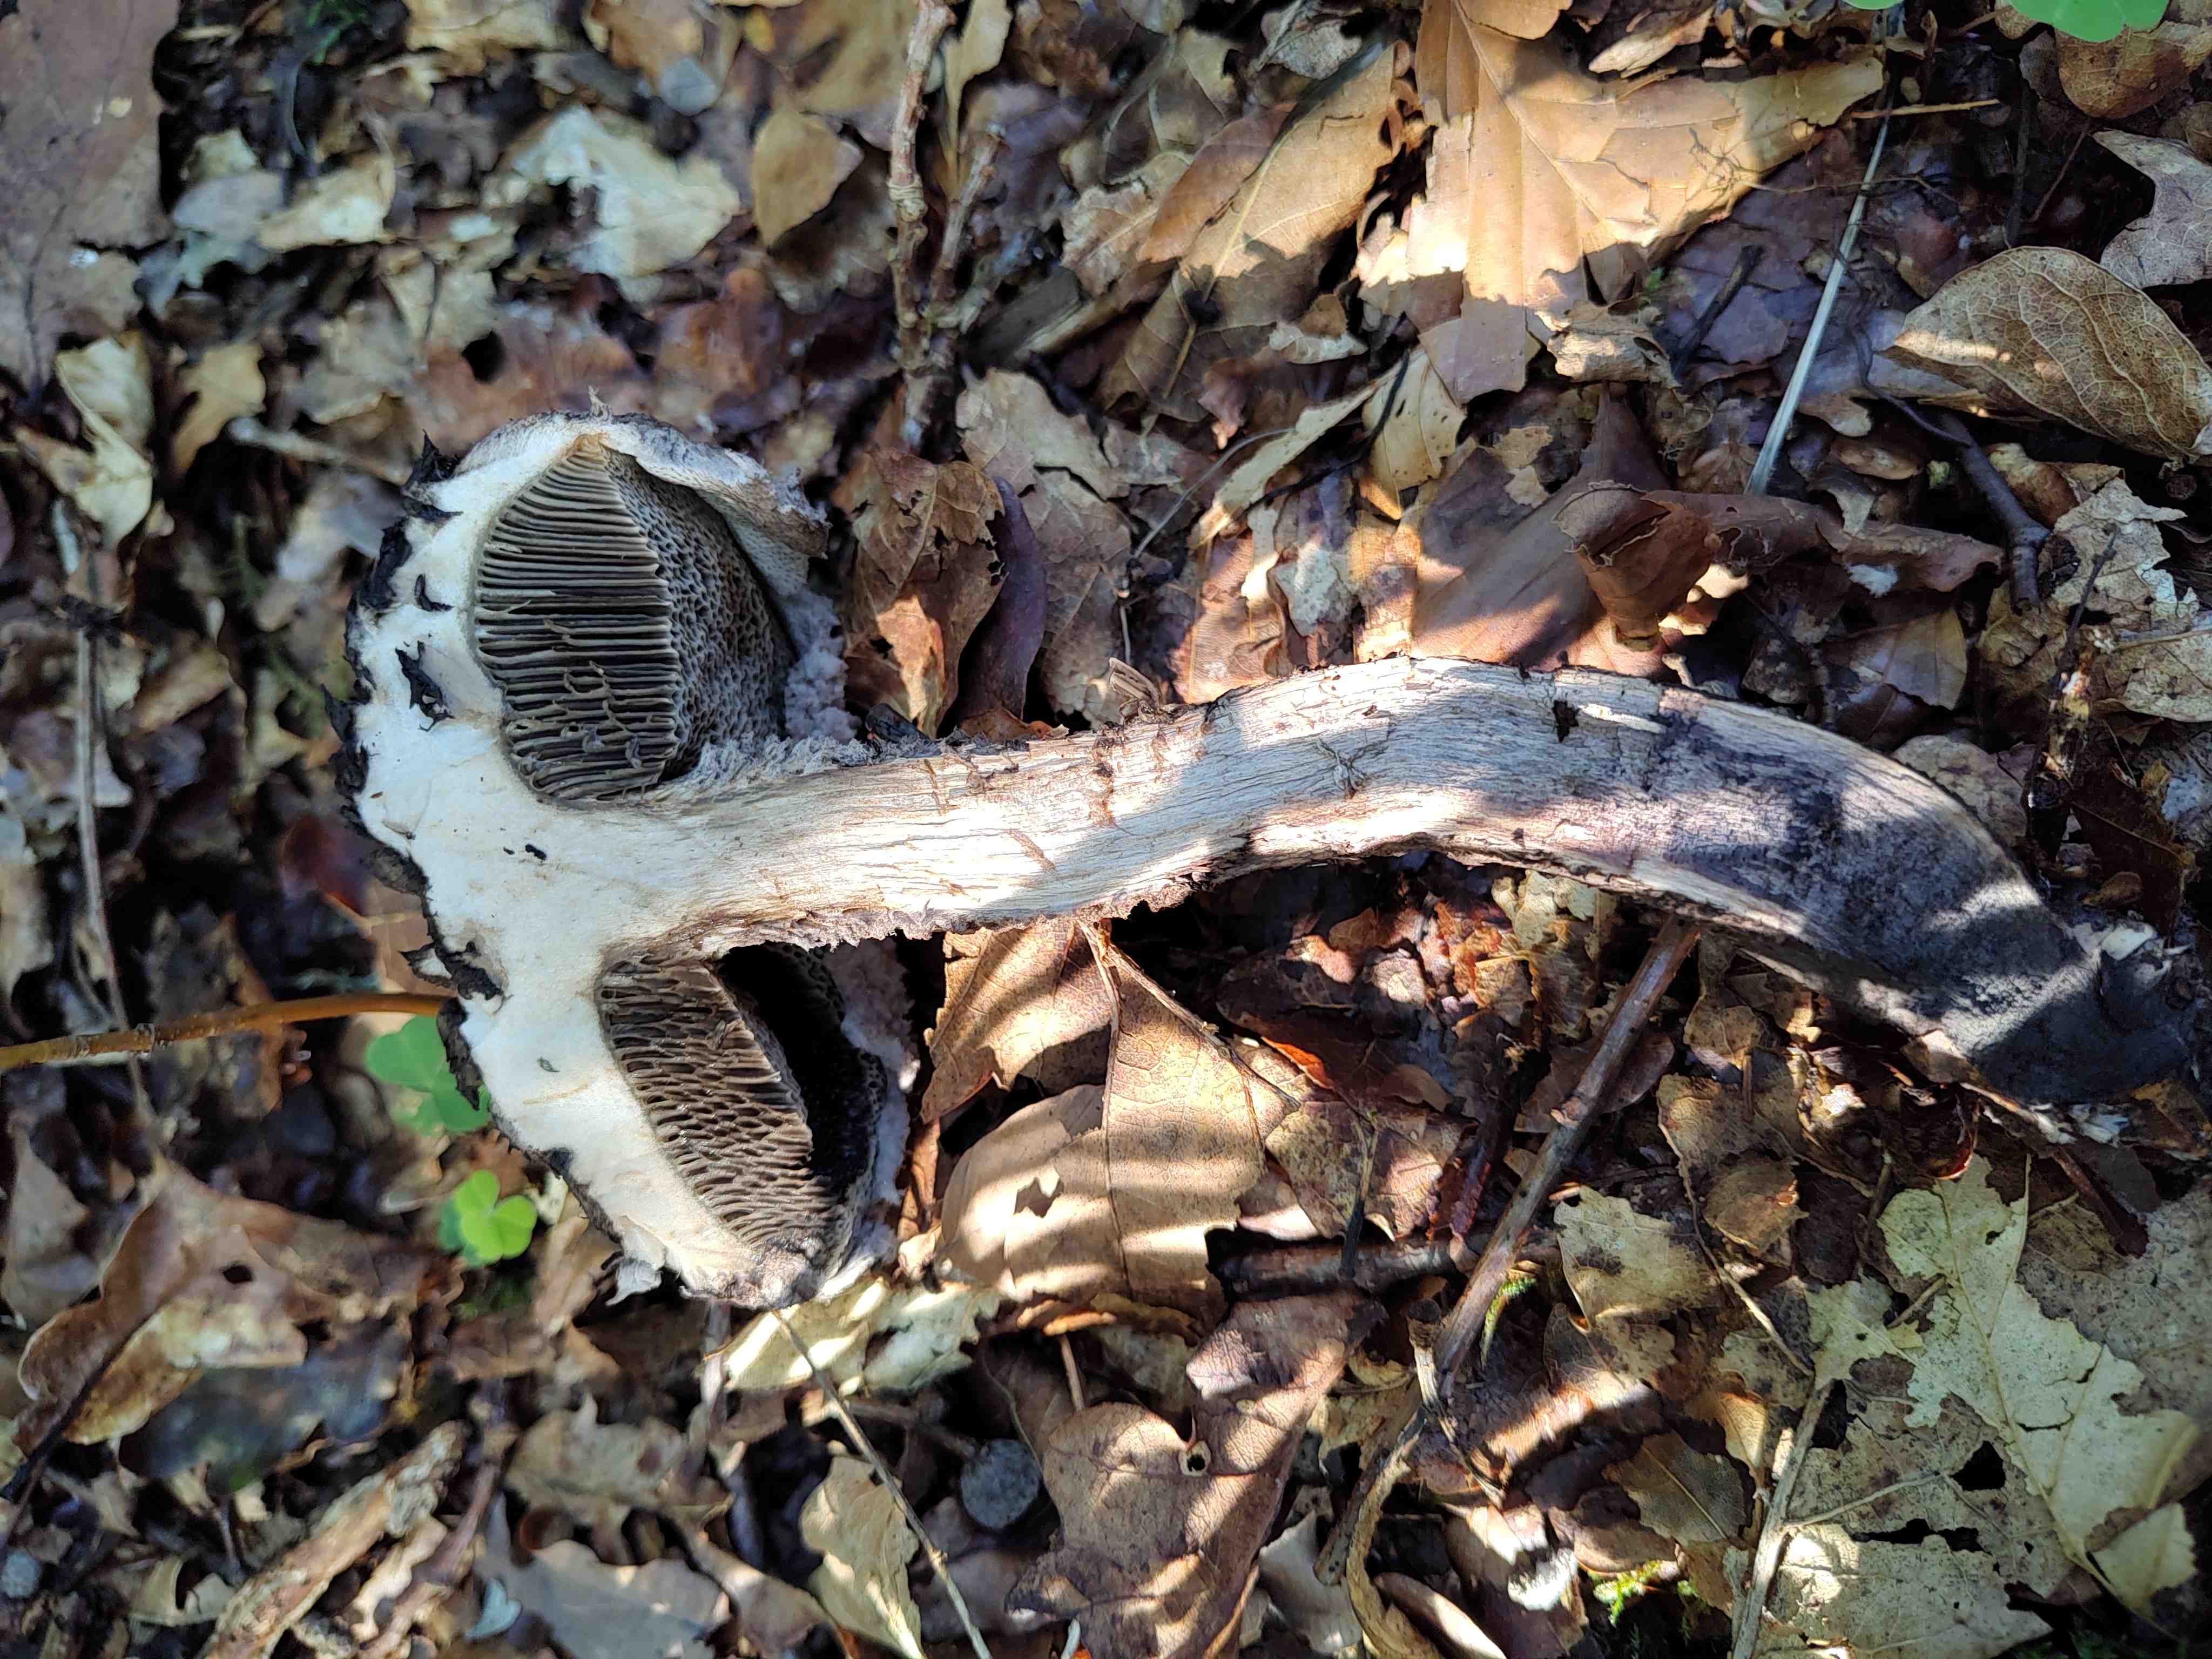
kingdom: Fungi
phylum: Basidiomycota
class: Agaricomycetes
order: Boletales
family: Boletaceae
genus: Strobilomyces
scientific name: Strobilomyces strobilaceus
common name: koglerørhat
